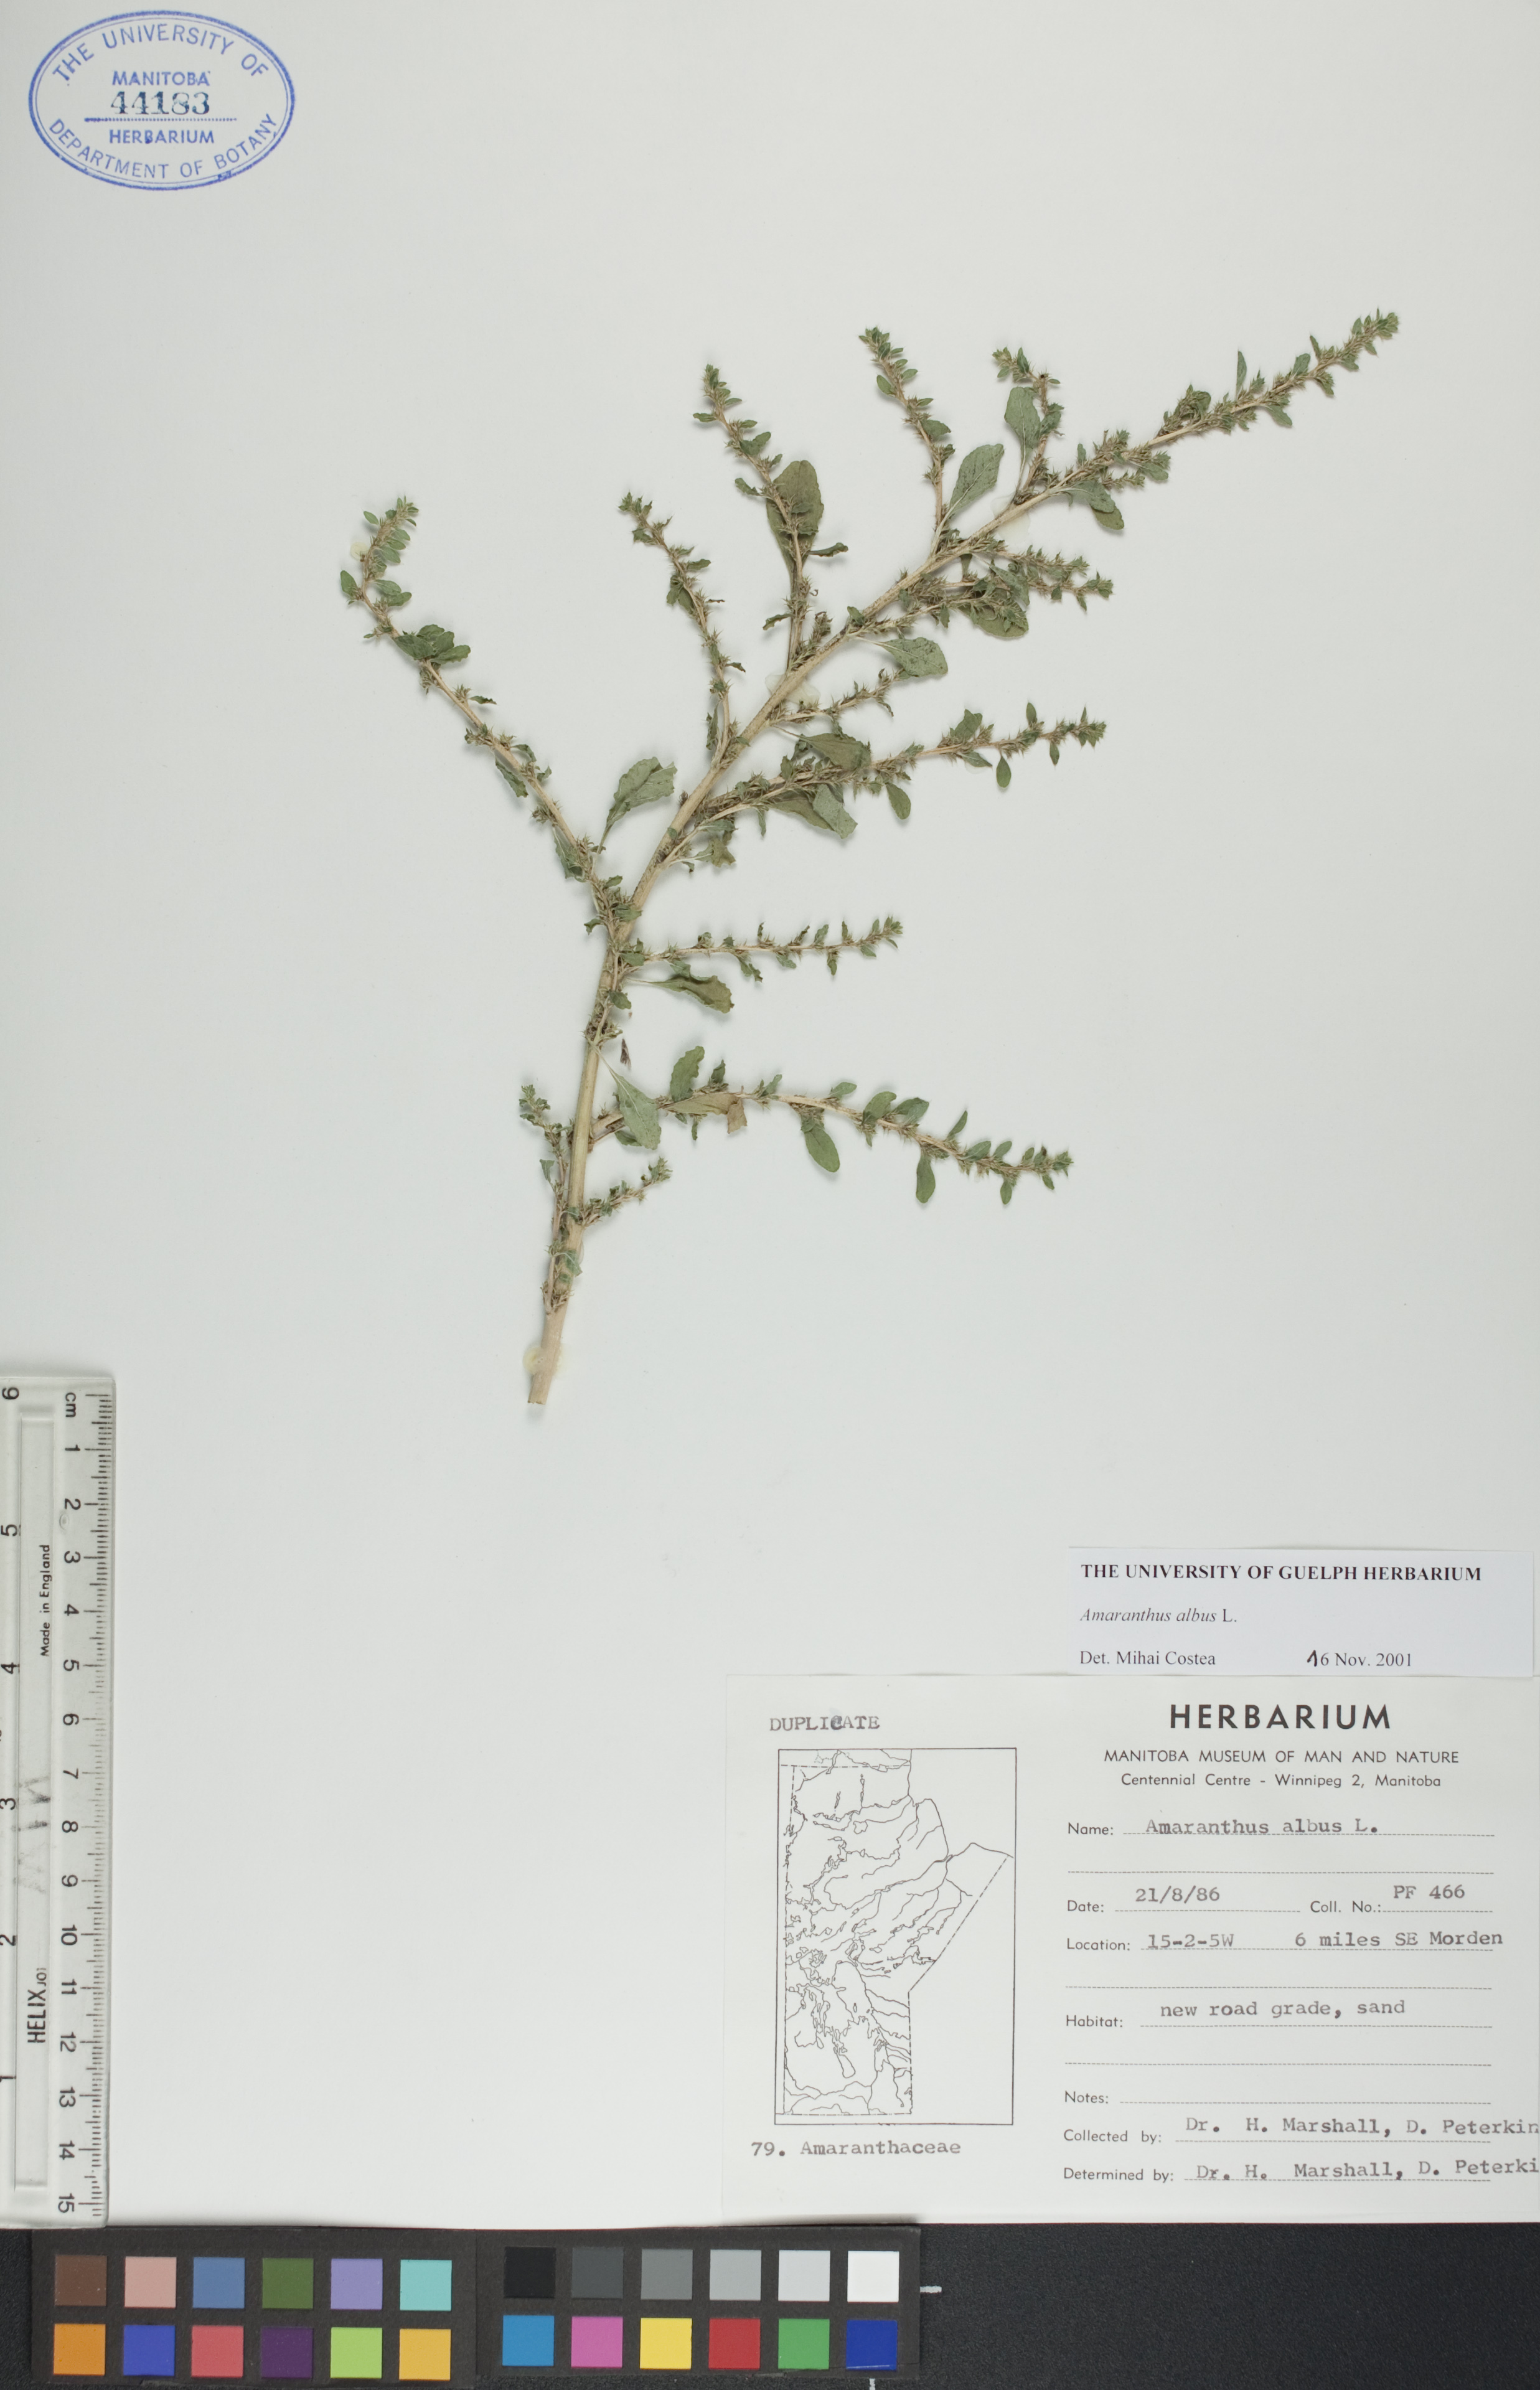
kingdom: Plantae
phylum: Tracheophyta
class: Magnoliopsida
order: Caryophyllales
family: Amaranthaceae
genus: Amaranthus
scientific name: Amaranthus albus
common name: White pigweed
